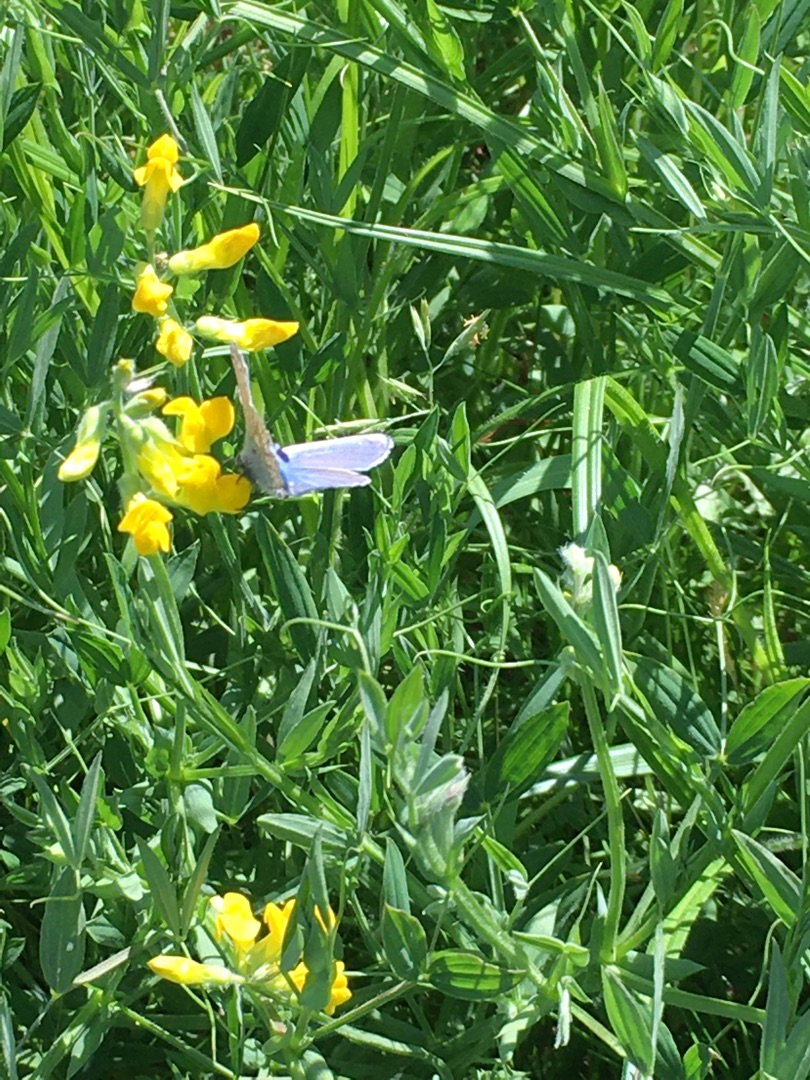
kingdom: Plantae
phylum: Tracheophyta
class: Magnoliopsida
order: Fabales
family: Fabaceae
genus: Lathyrus
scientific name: Lathyrus pratensis
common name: Gul fladbælg
